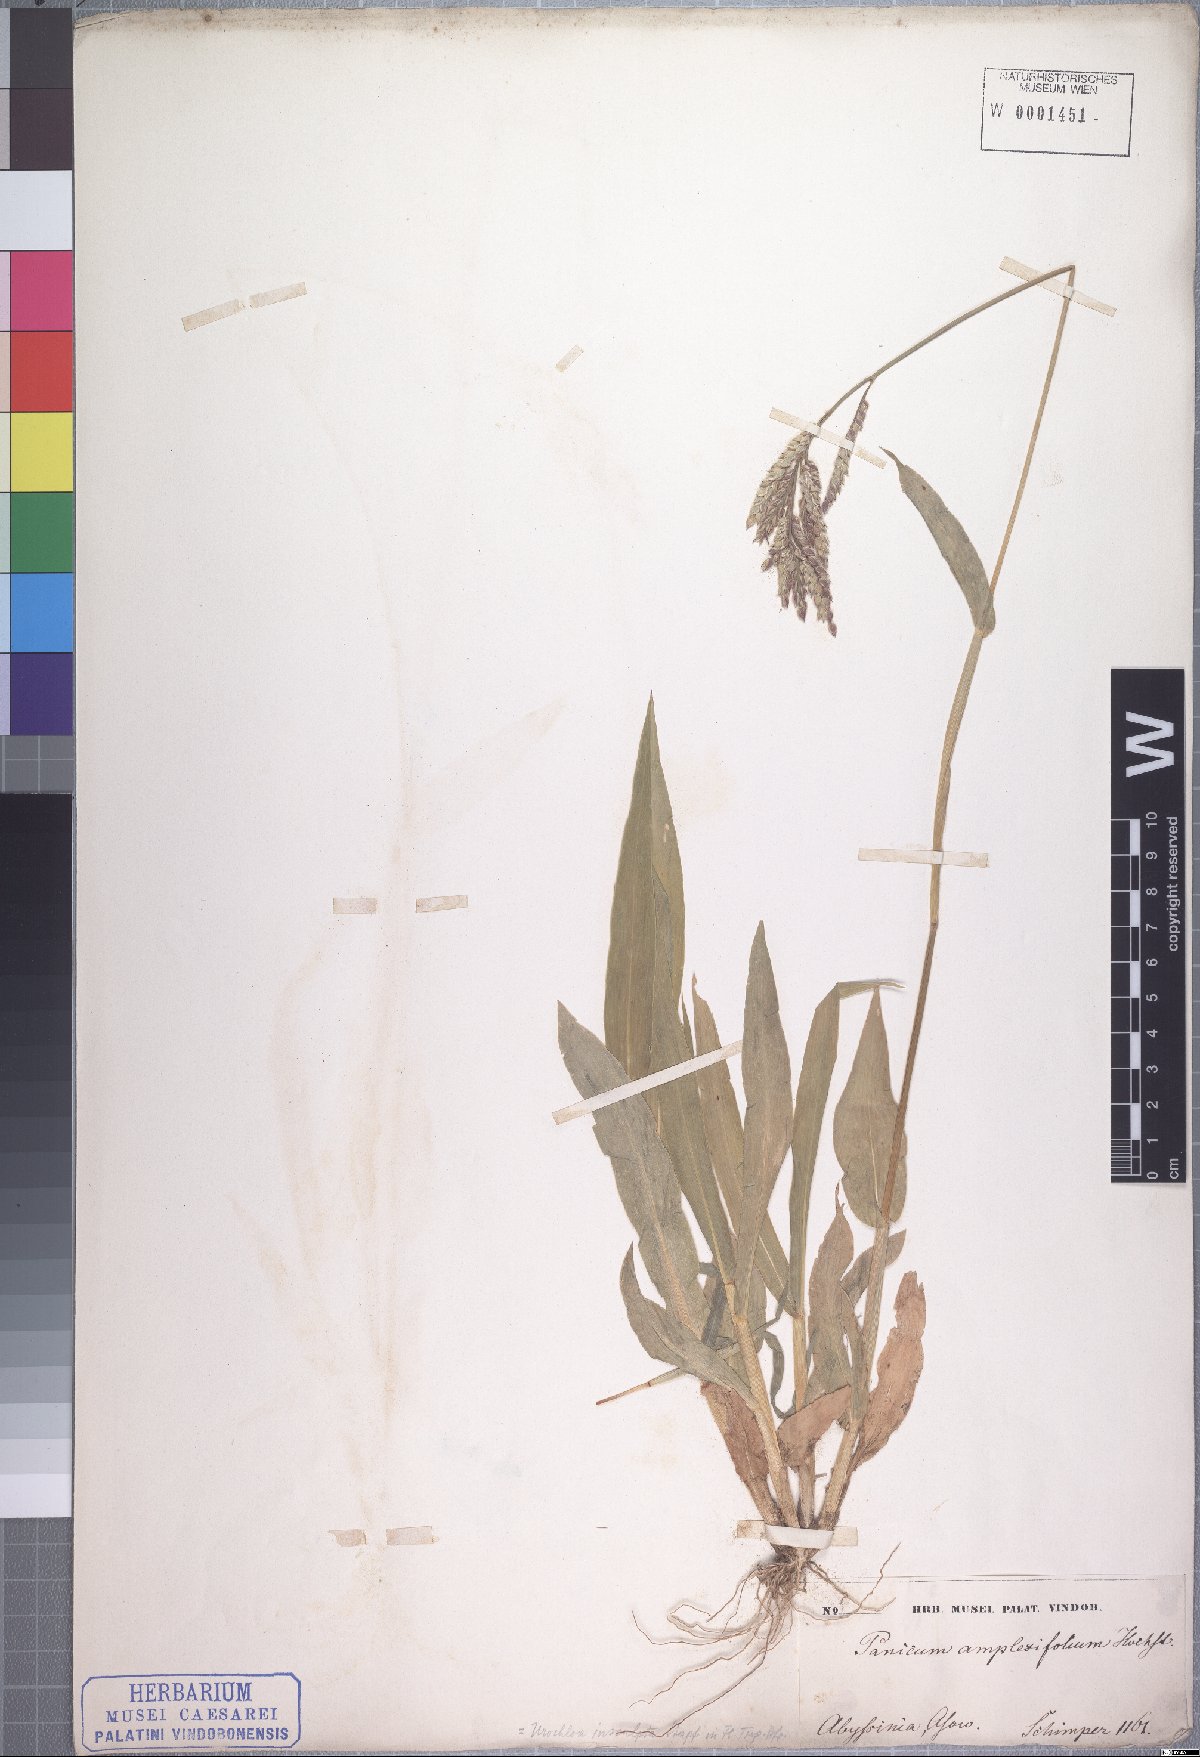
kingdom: Plantae
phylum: Tracheophyta
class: Liliopsida
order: Poales
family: Poaceae
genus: Urochloa
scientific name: Urochloa lata
